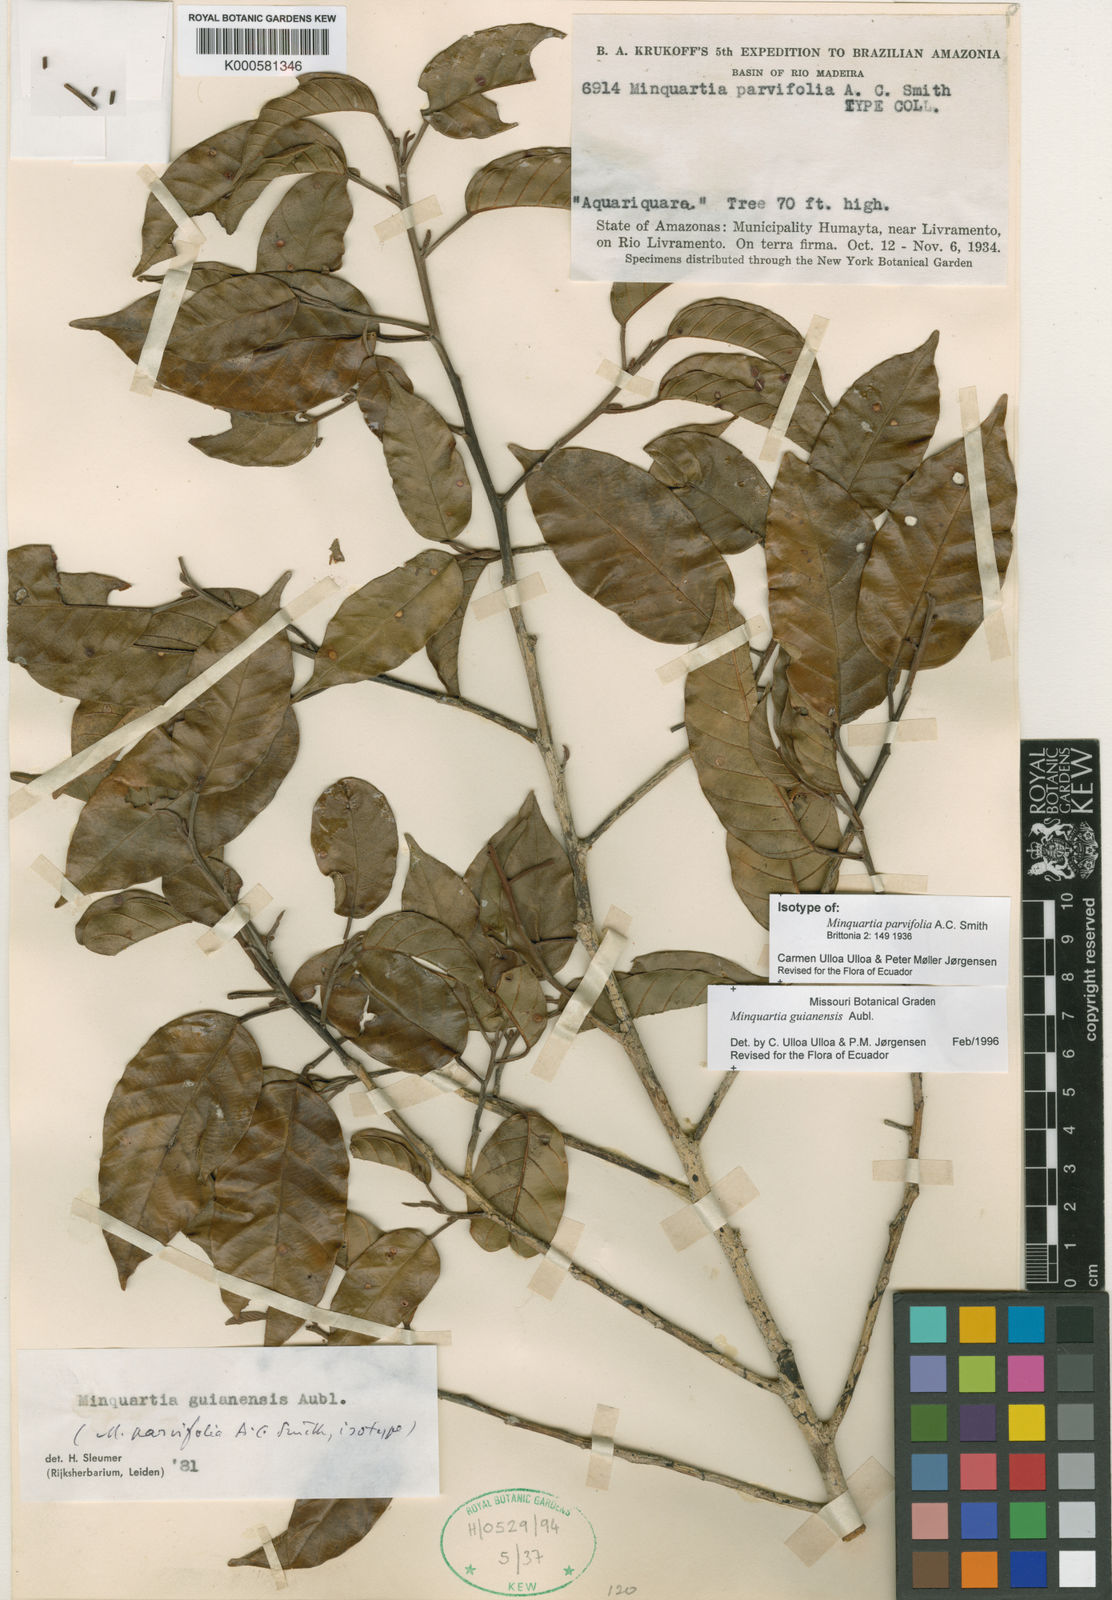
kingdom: Plantae
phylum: Tracheophyta
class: Magnoliopsida
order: Santalales
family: Coulaceae
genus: Minquartia
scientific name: Minquartia guianensis
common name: Black manwood
